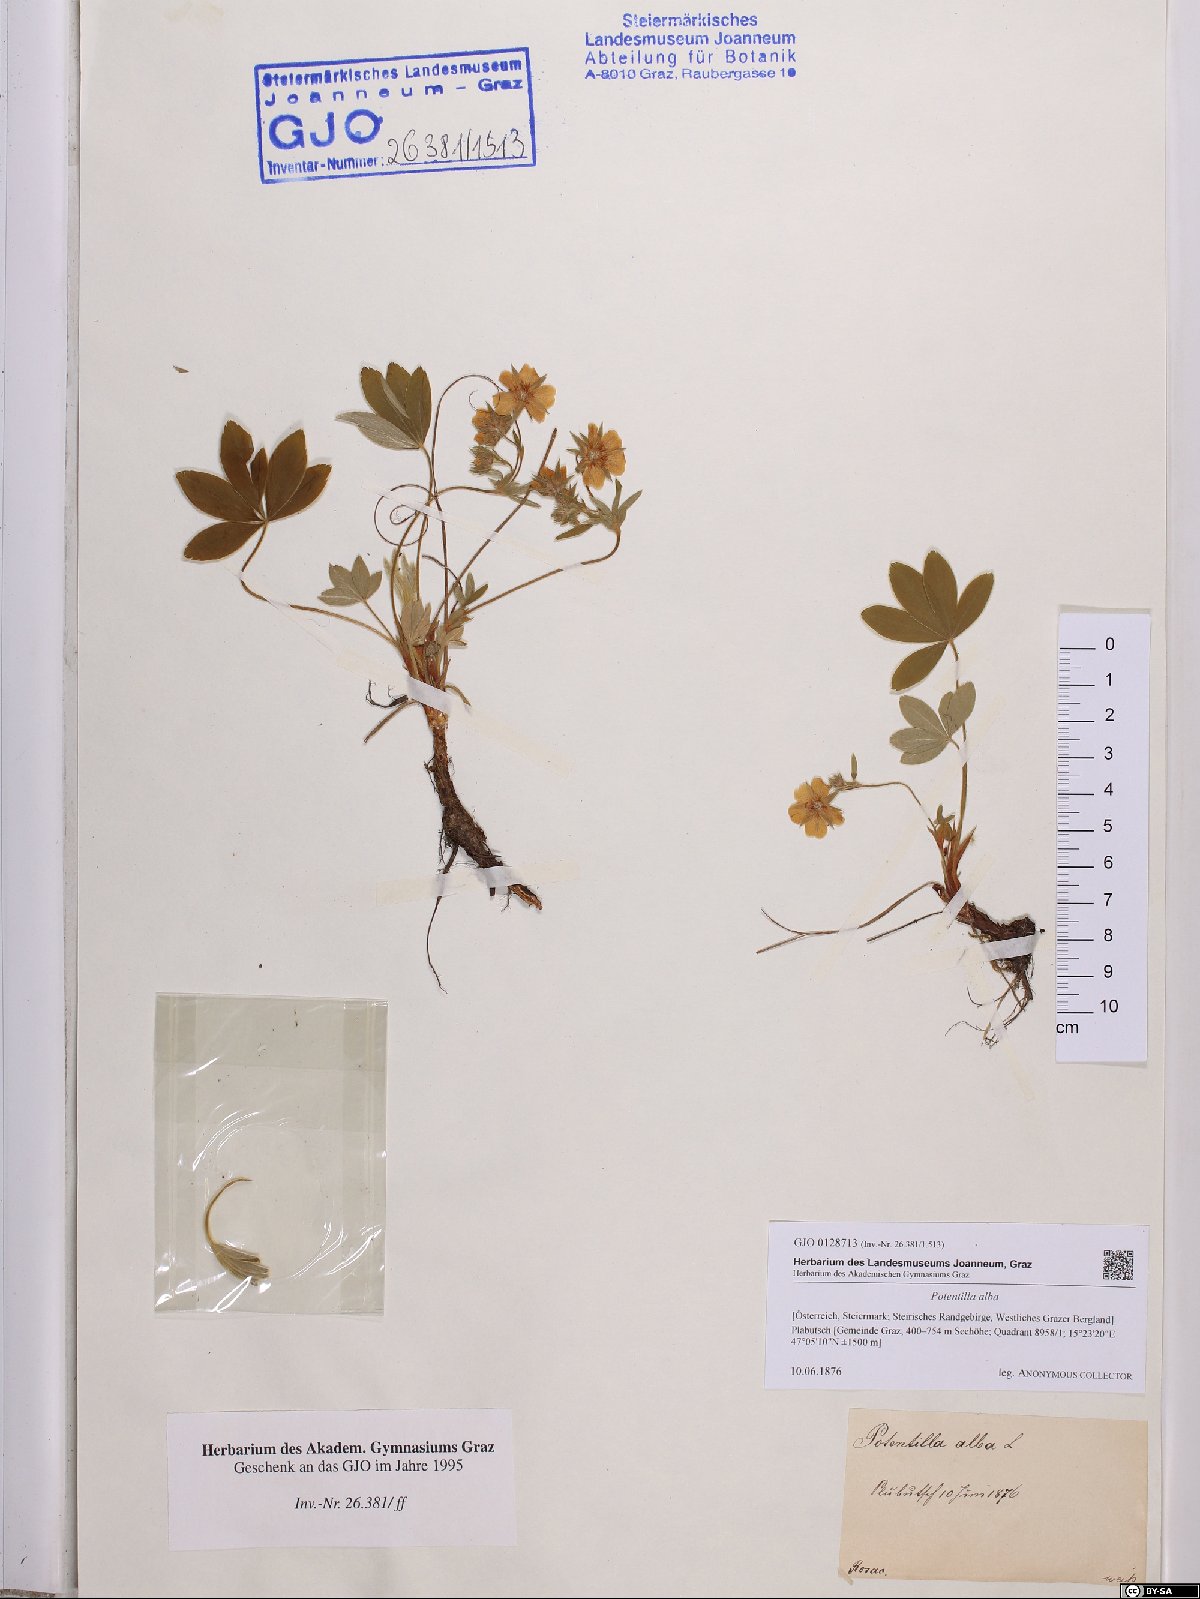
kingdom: Plantae
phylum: Tracheophyta
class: Magnoliopsida
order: Rosales
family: Rosaceae
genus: Potentilla
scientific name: Potentilla alba
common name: White cinquefoil
